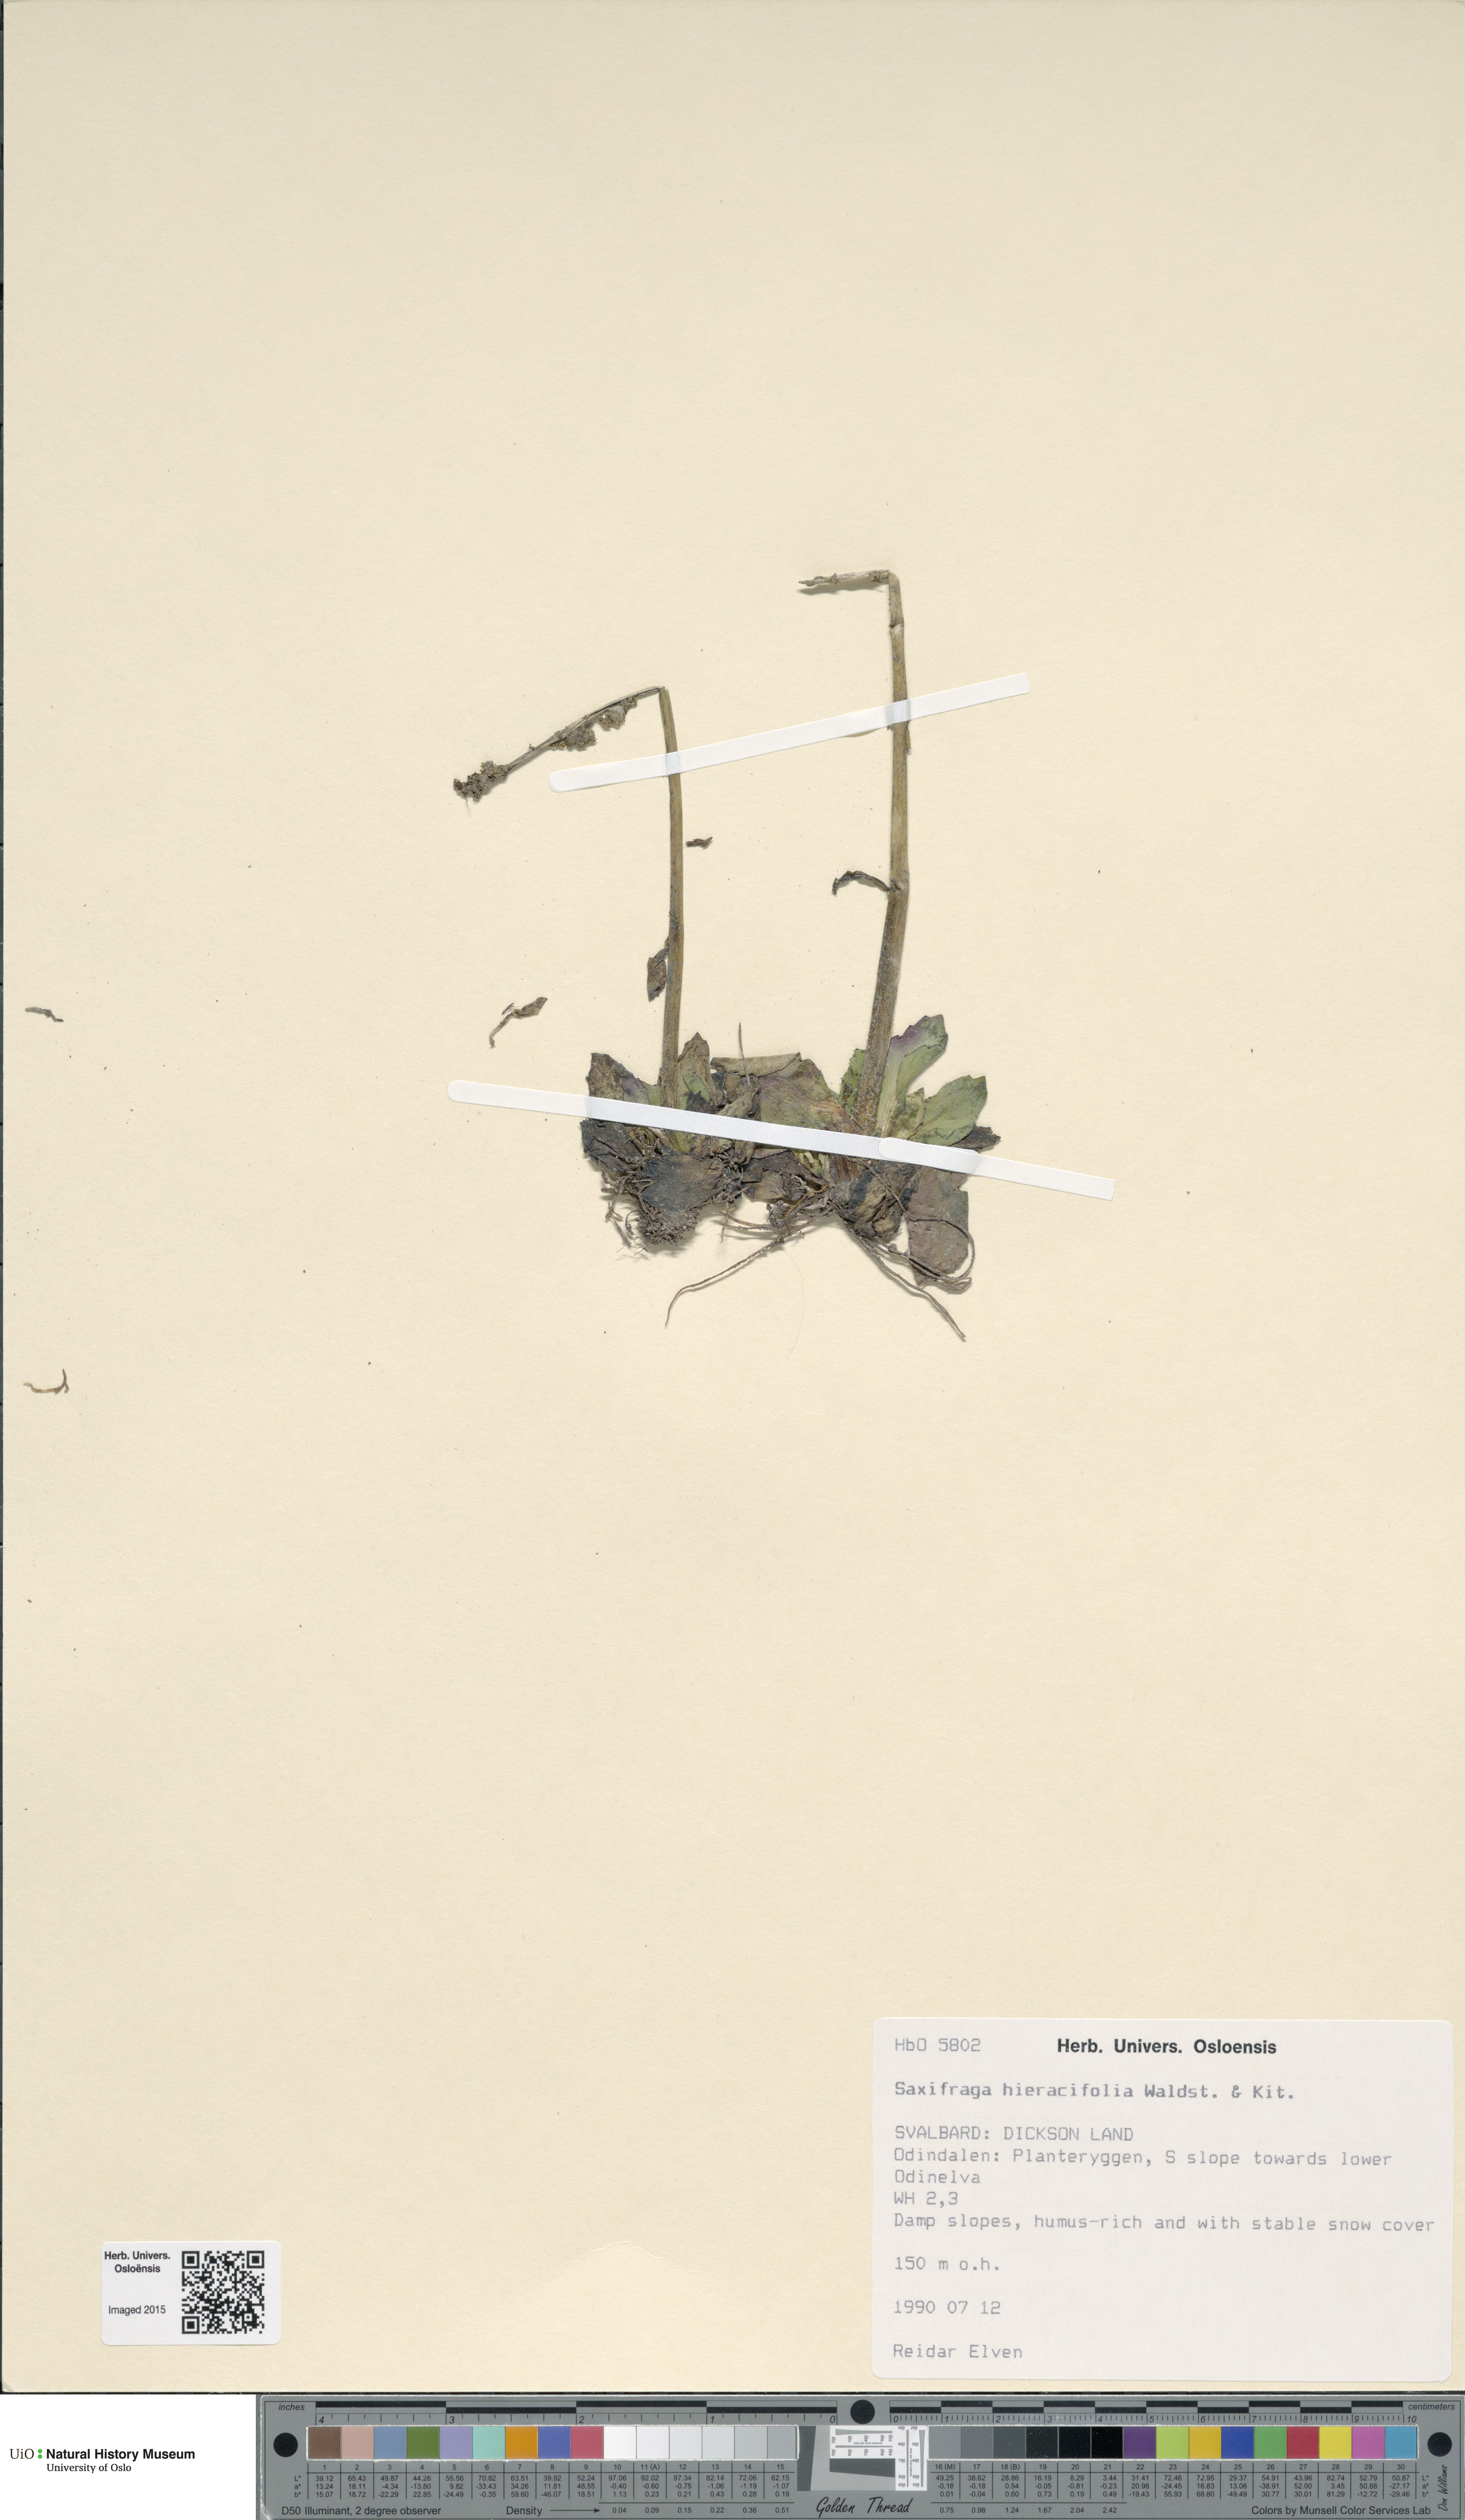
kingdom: Plantae
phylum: Tracheophyta
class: Magnoliopsida
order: Saxifragales
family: Saxifragaceae
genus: Micranthes
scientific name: Micranthes hieraciifolia
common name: Hawkweed-leaved saxifrage
